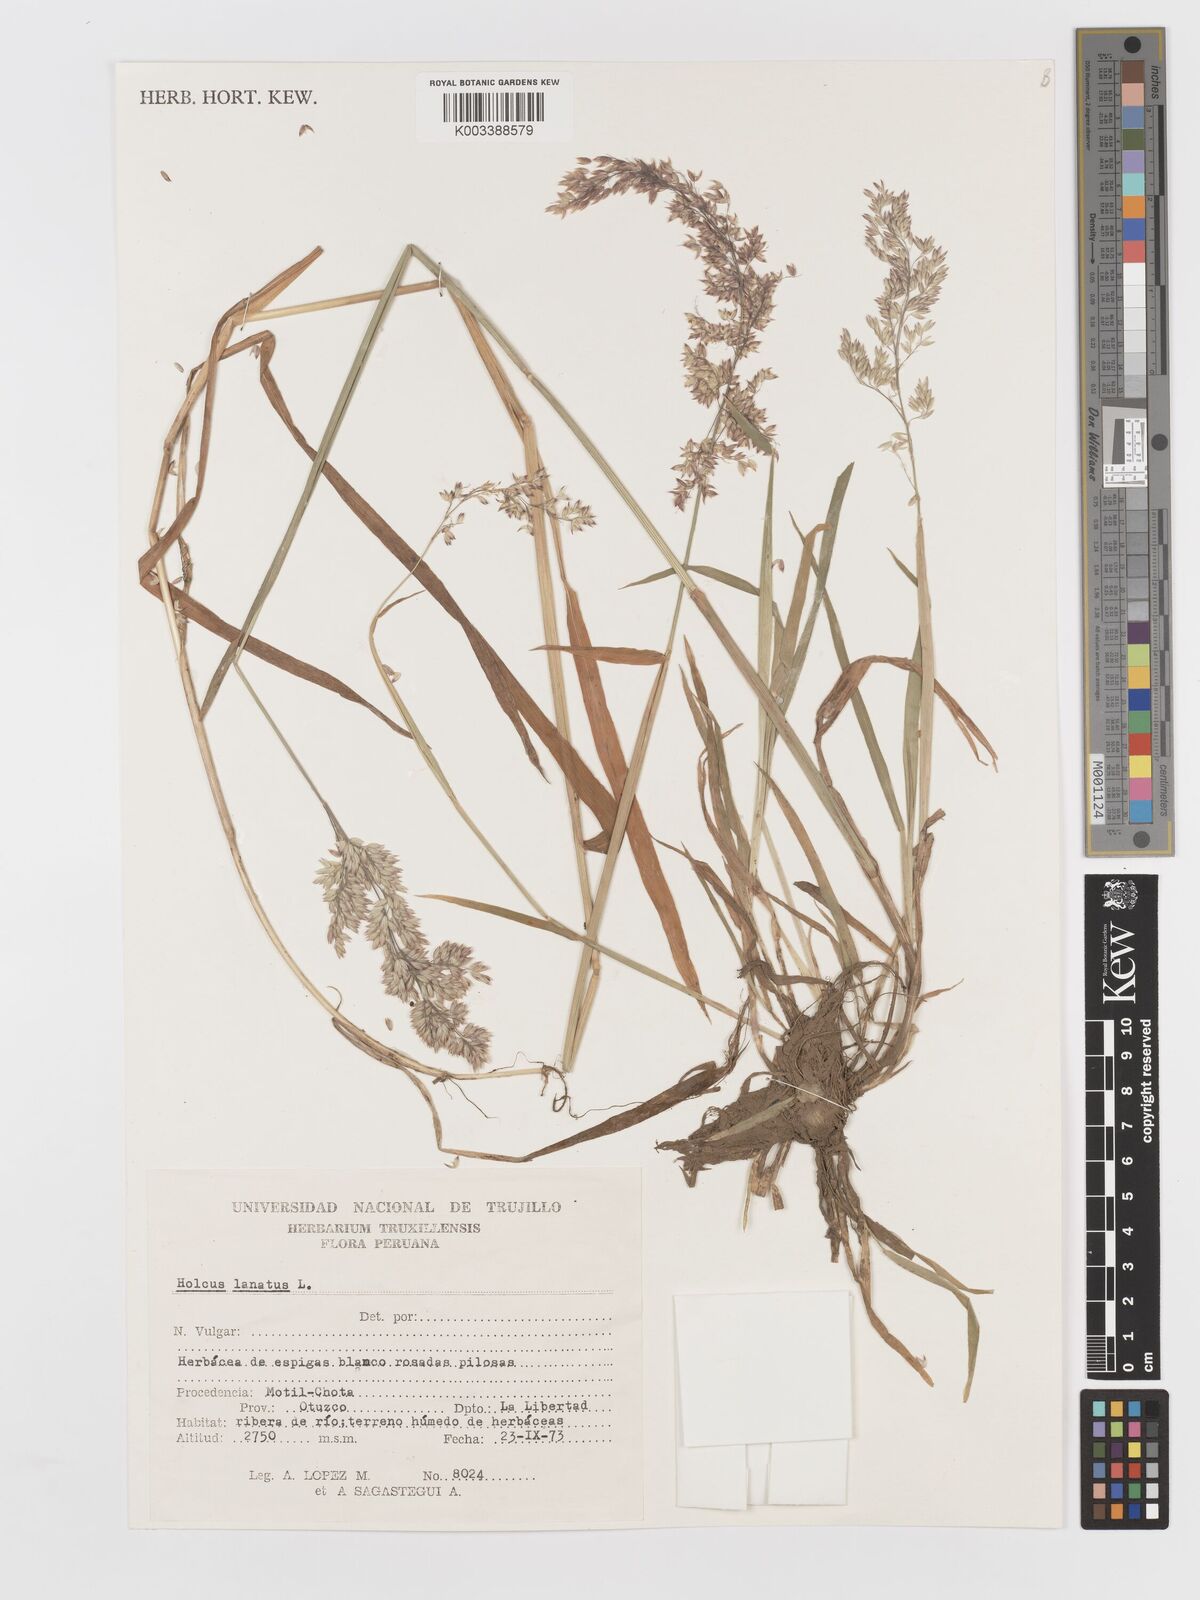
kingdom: Plantae
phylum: Tracheophyta
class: Liliopsida
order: Poales
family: Poaceae
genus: Holcus
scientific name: Holcus lanatus
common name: Yorkshire-fog
